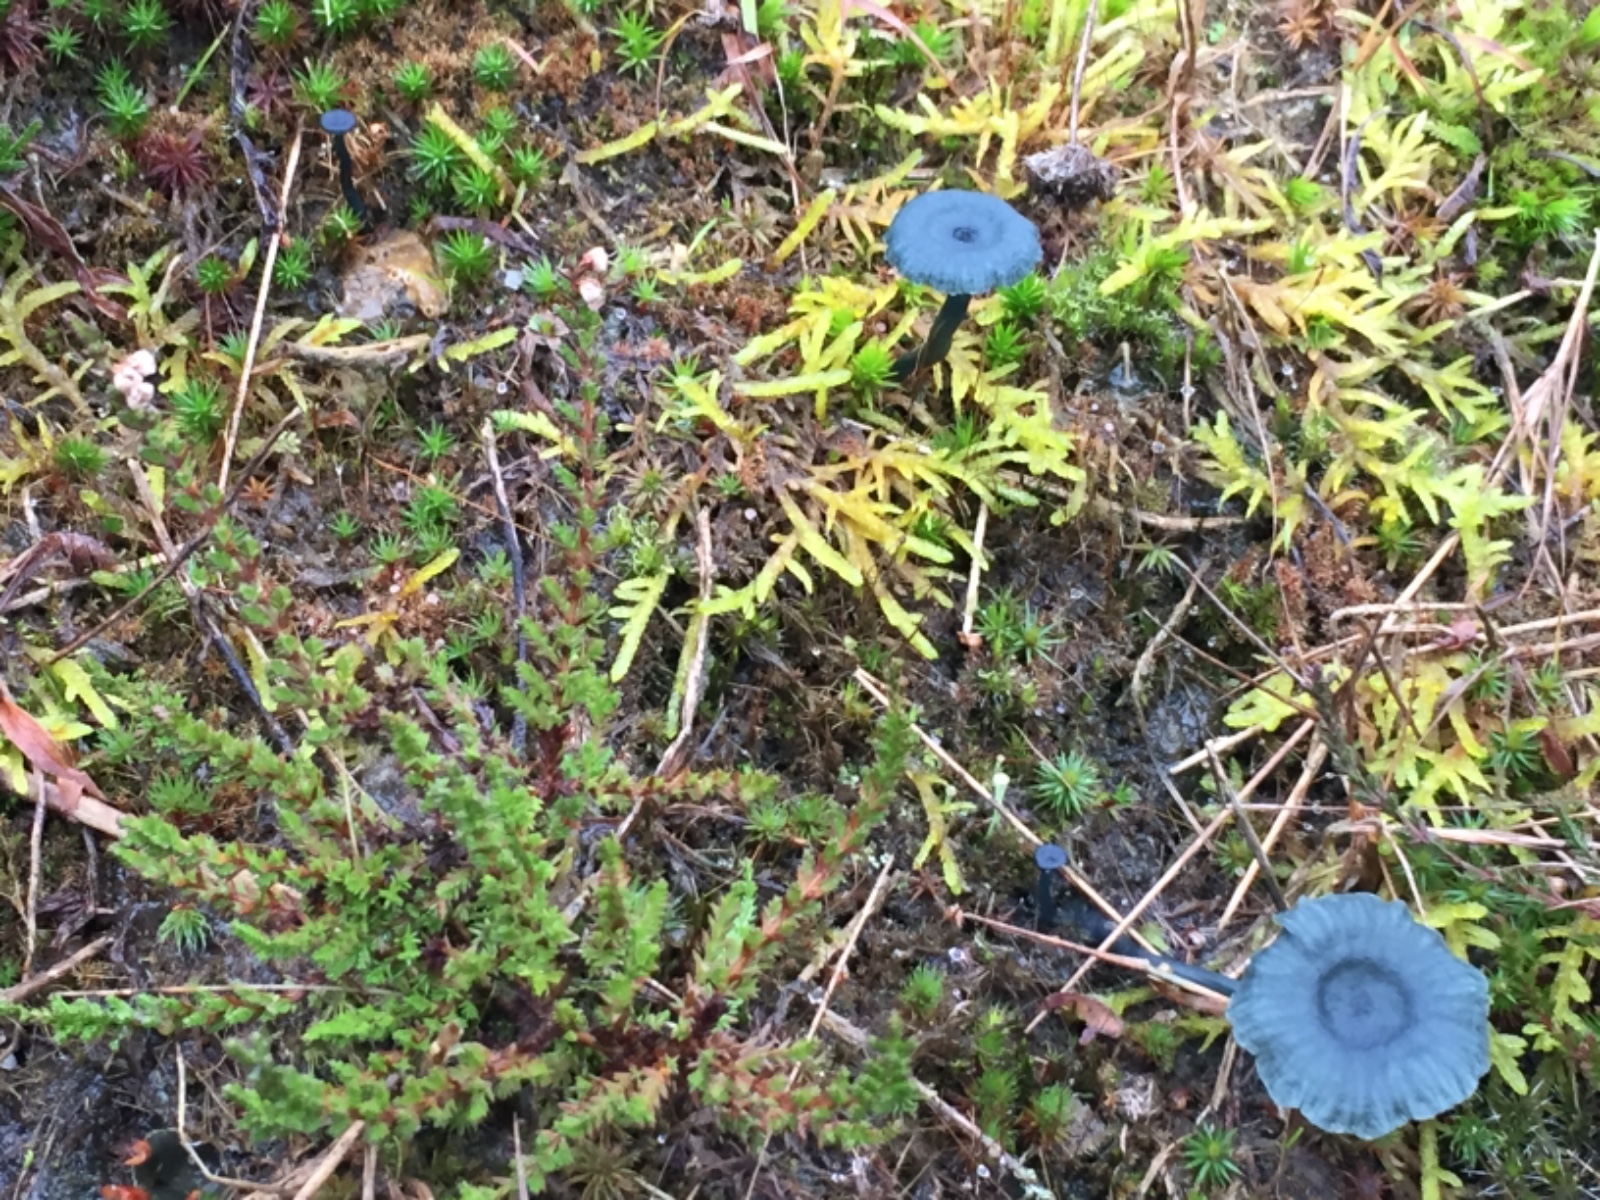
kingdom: Fungi
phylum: Basidiomycota
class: Agaricomycetes
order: Agaricales
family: Hygrophoraceae
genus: Arrhenia
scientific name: Arrhenia chlorocyanea
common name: blågrøn fontænehat
